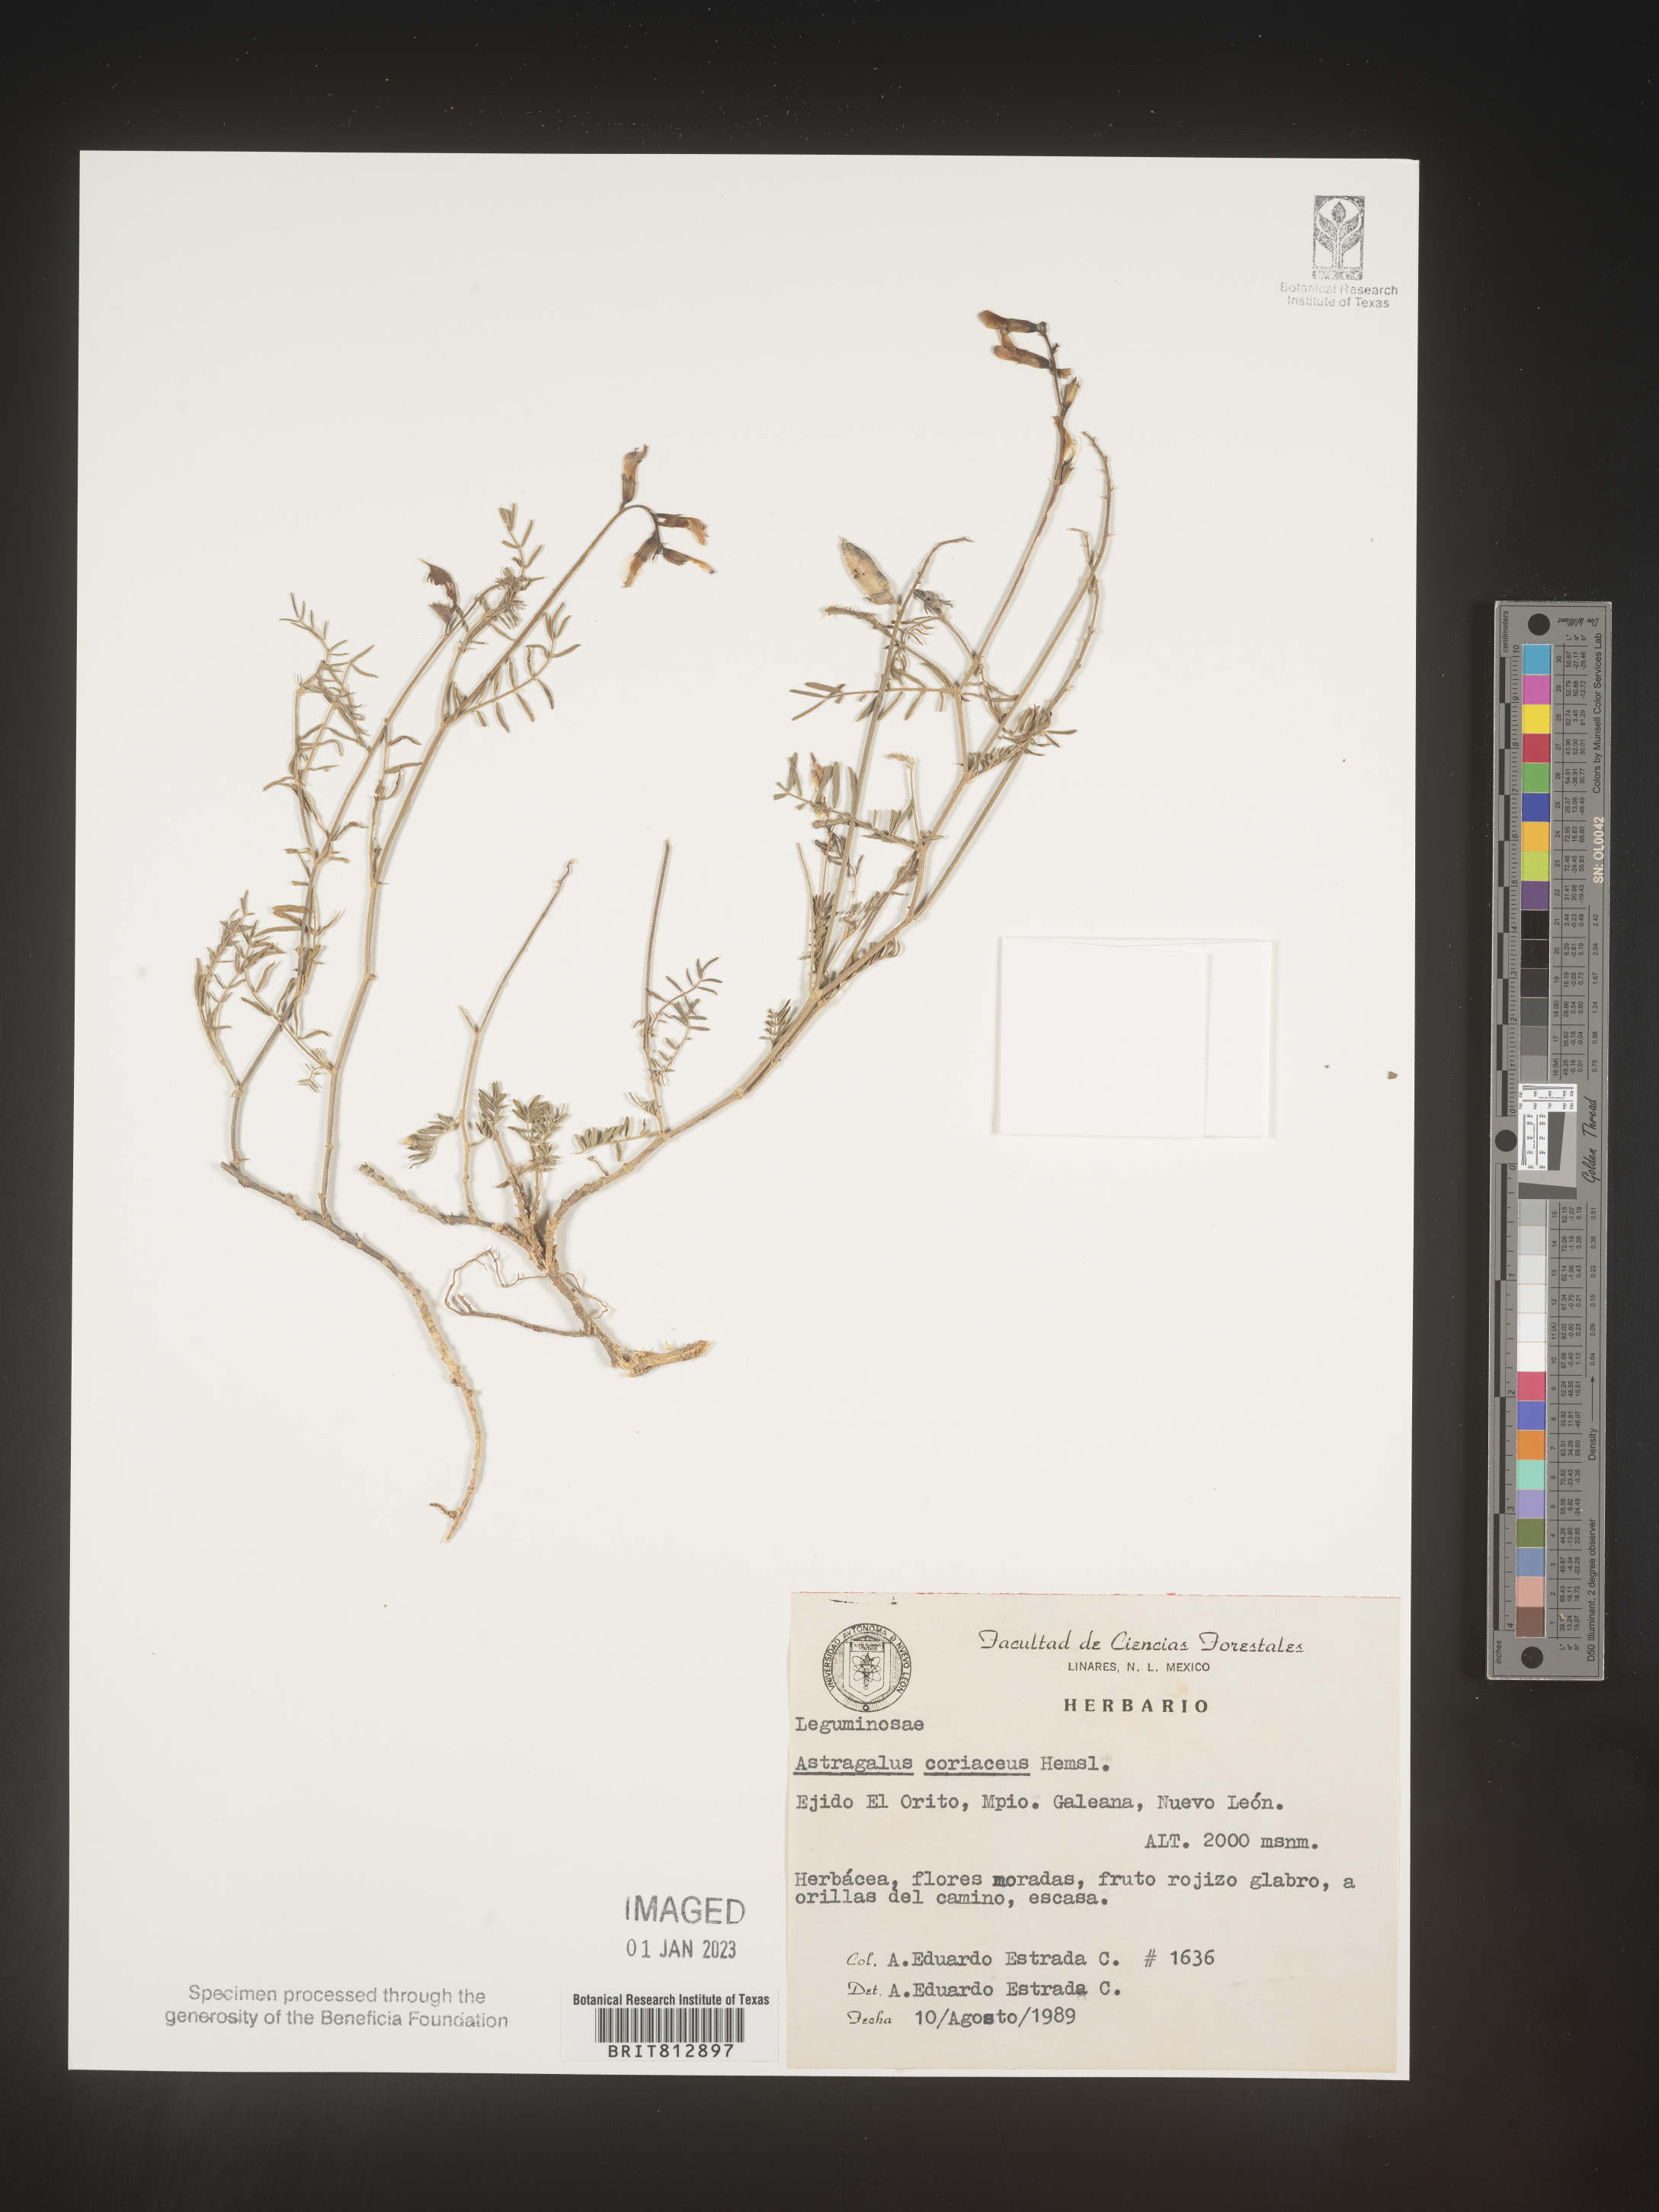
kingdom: Plantae
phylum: Tracheophyta
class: Magnoliopsida
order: Fabales
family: Fabaceae
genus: Astragalus
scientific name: Astragalus
